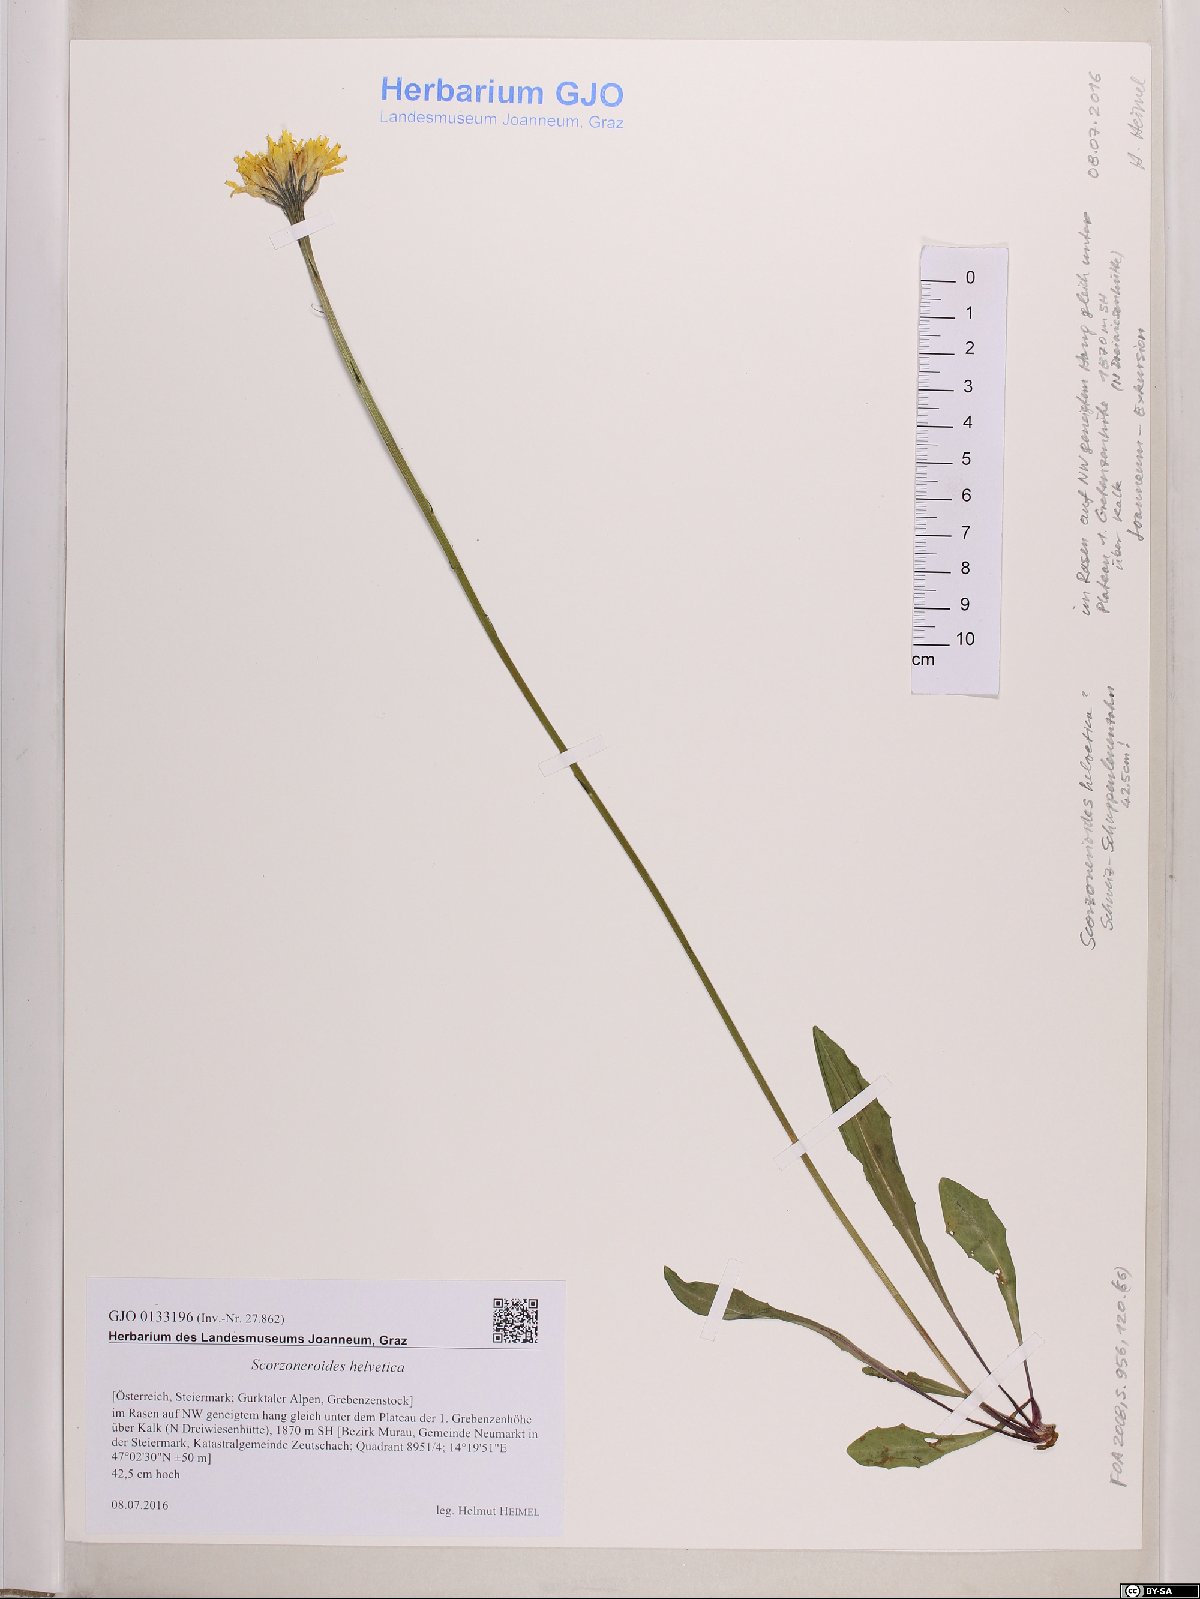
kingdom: Plantae
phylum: Tracheophyta
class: Magnoliopsida
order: Asterales
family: Asteraceae
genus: Scorzoneroides
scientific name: Scorzoneroides helvetica
